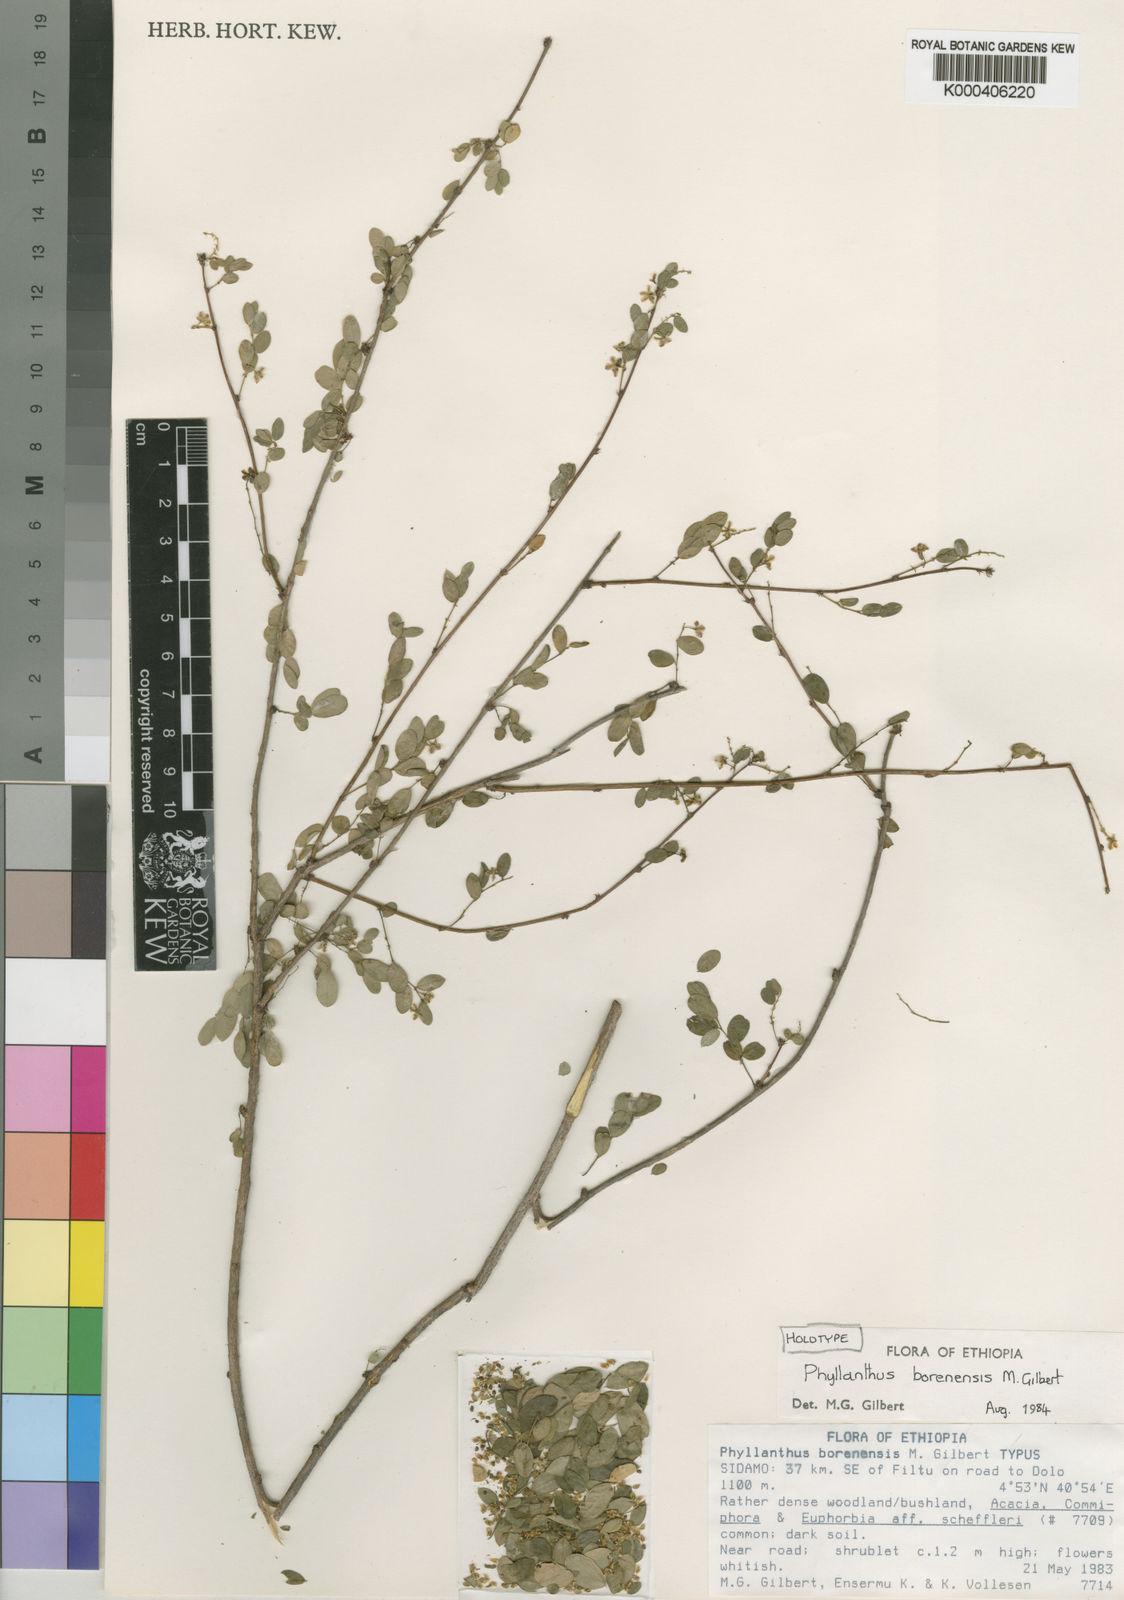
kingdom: Plantae
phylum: Tracheophyta
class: Magnoliopsida
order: Malpighiales
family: Phyllanthaceae
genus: Phyllanthus
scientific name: Phyllanthus borenensis
